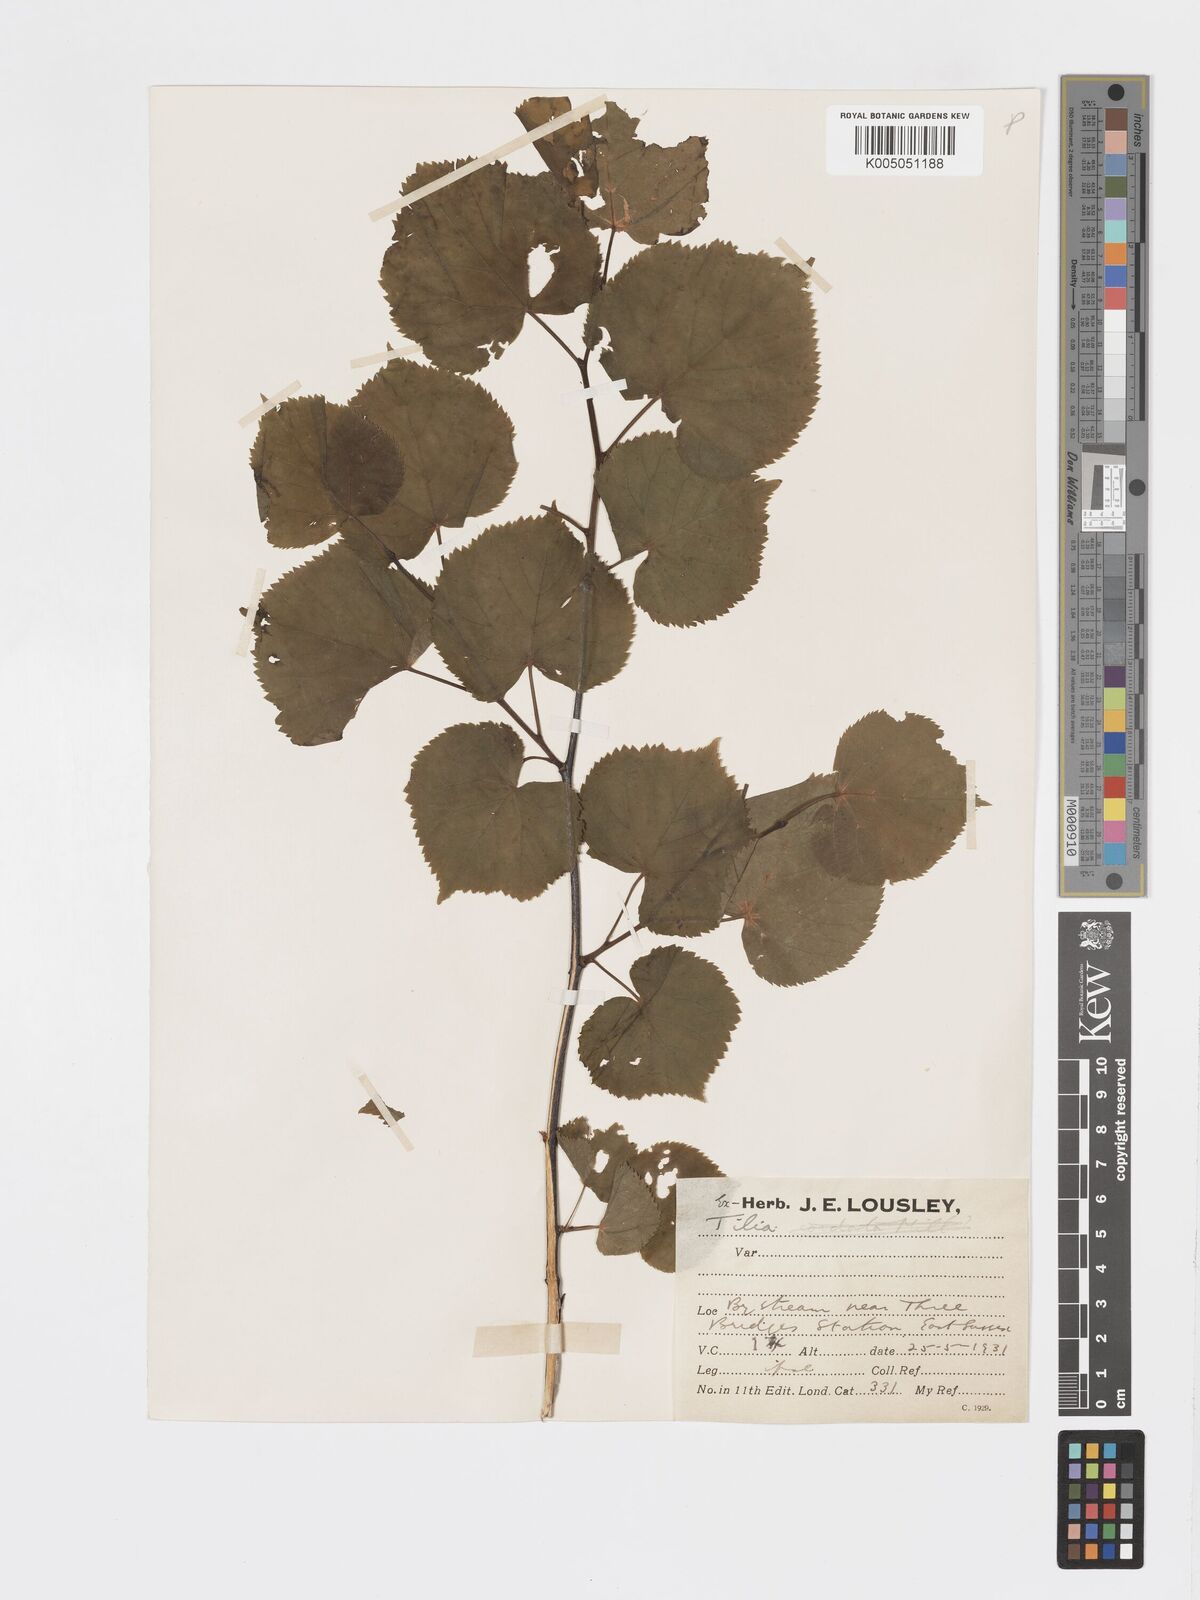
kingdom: Plantae
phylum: Tracheophyta
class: Magnoliopsida
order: Malvales
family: Malvaceae
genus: Tilia
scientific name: Tilia cordata
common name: Small-leaved lime
